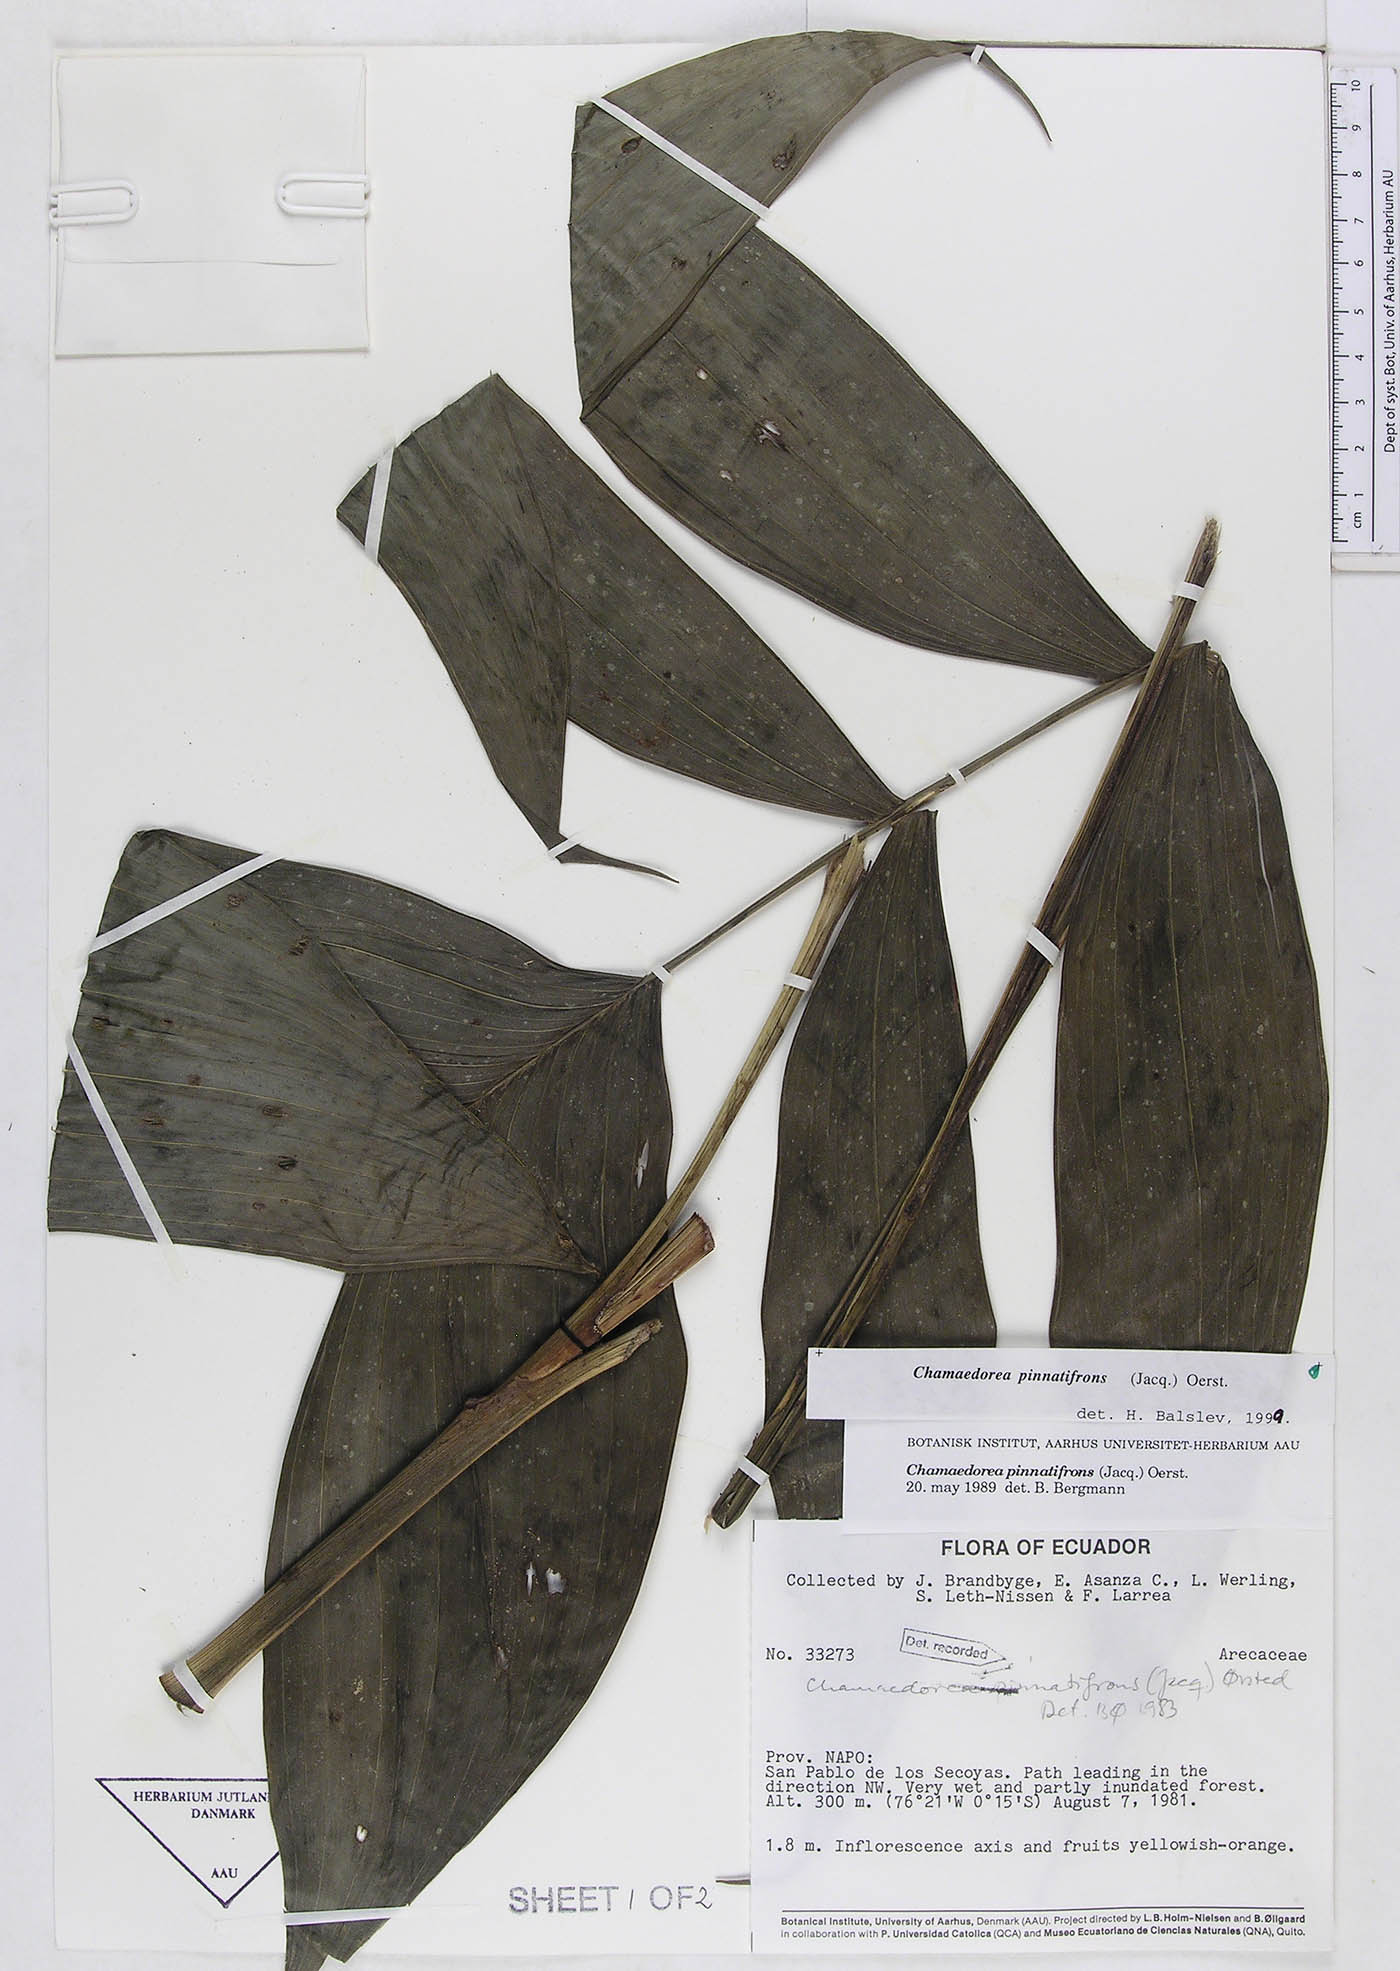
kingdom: Plantae
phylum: Tracheophyta
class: Liliopsida
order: Arecales
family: Arecaceae
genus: Chamaedorea
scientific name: Chamaedorea pinnatifrons
